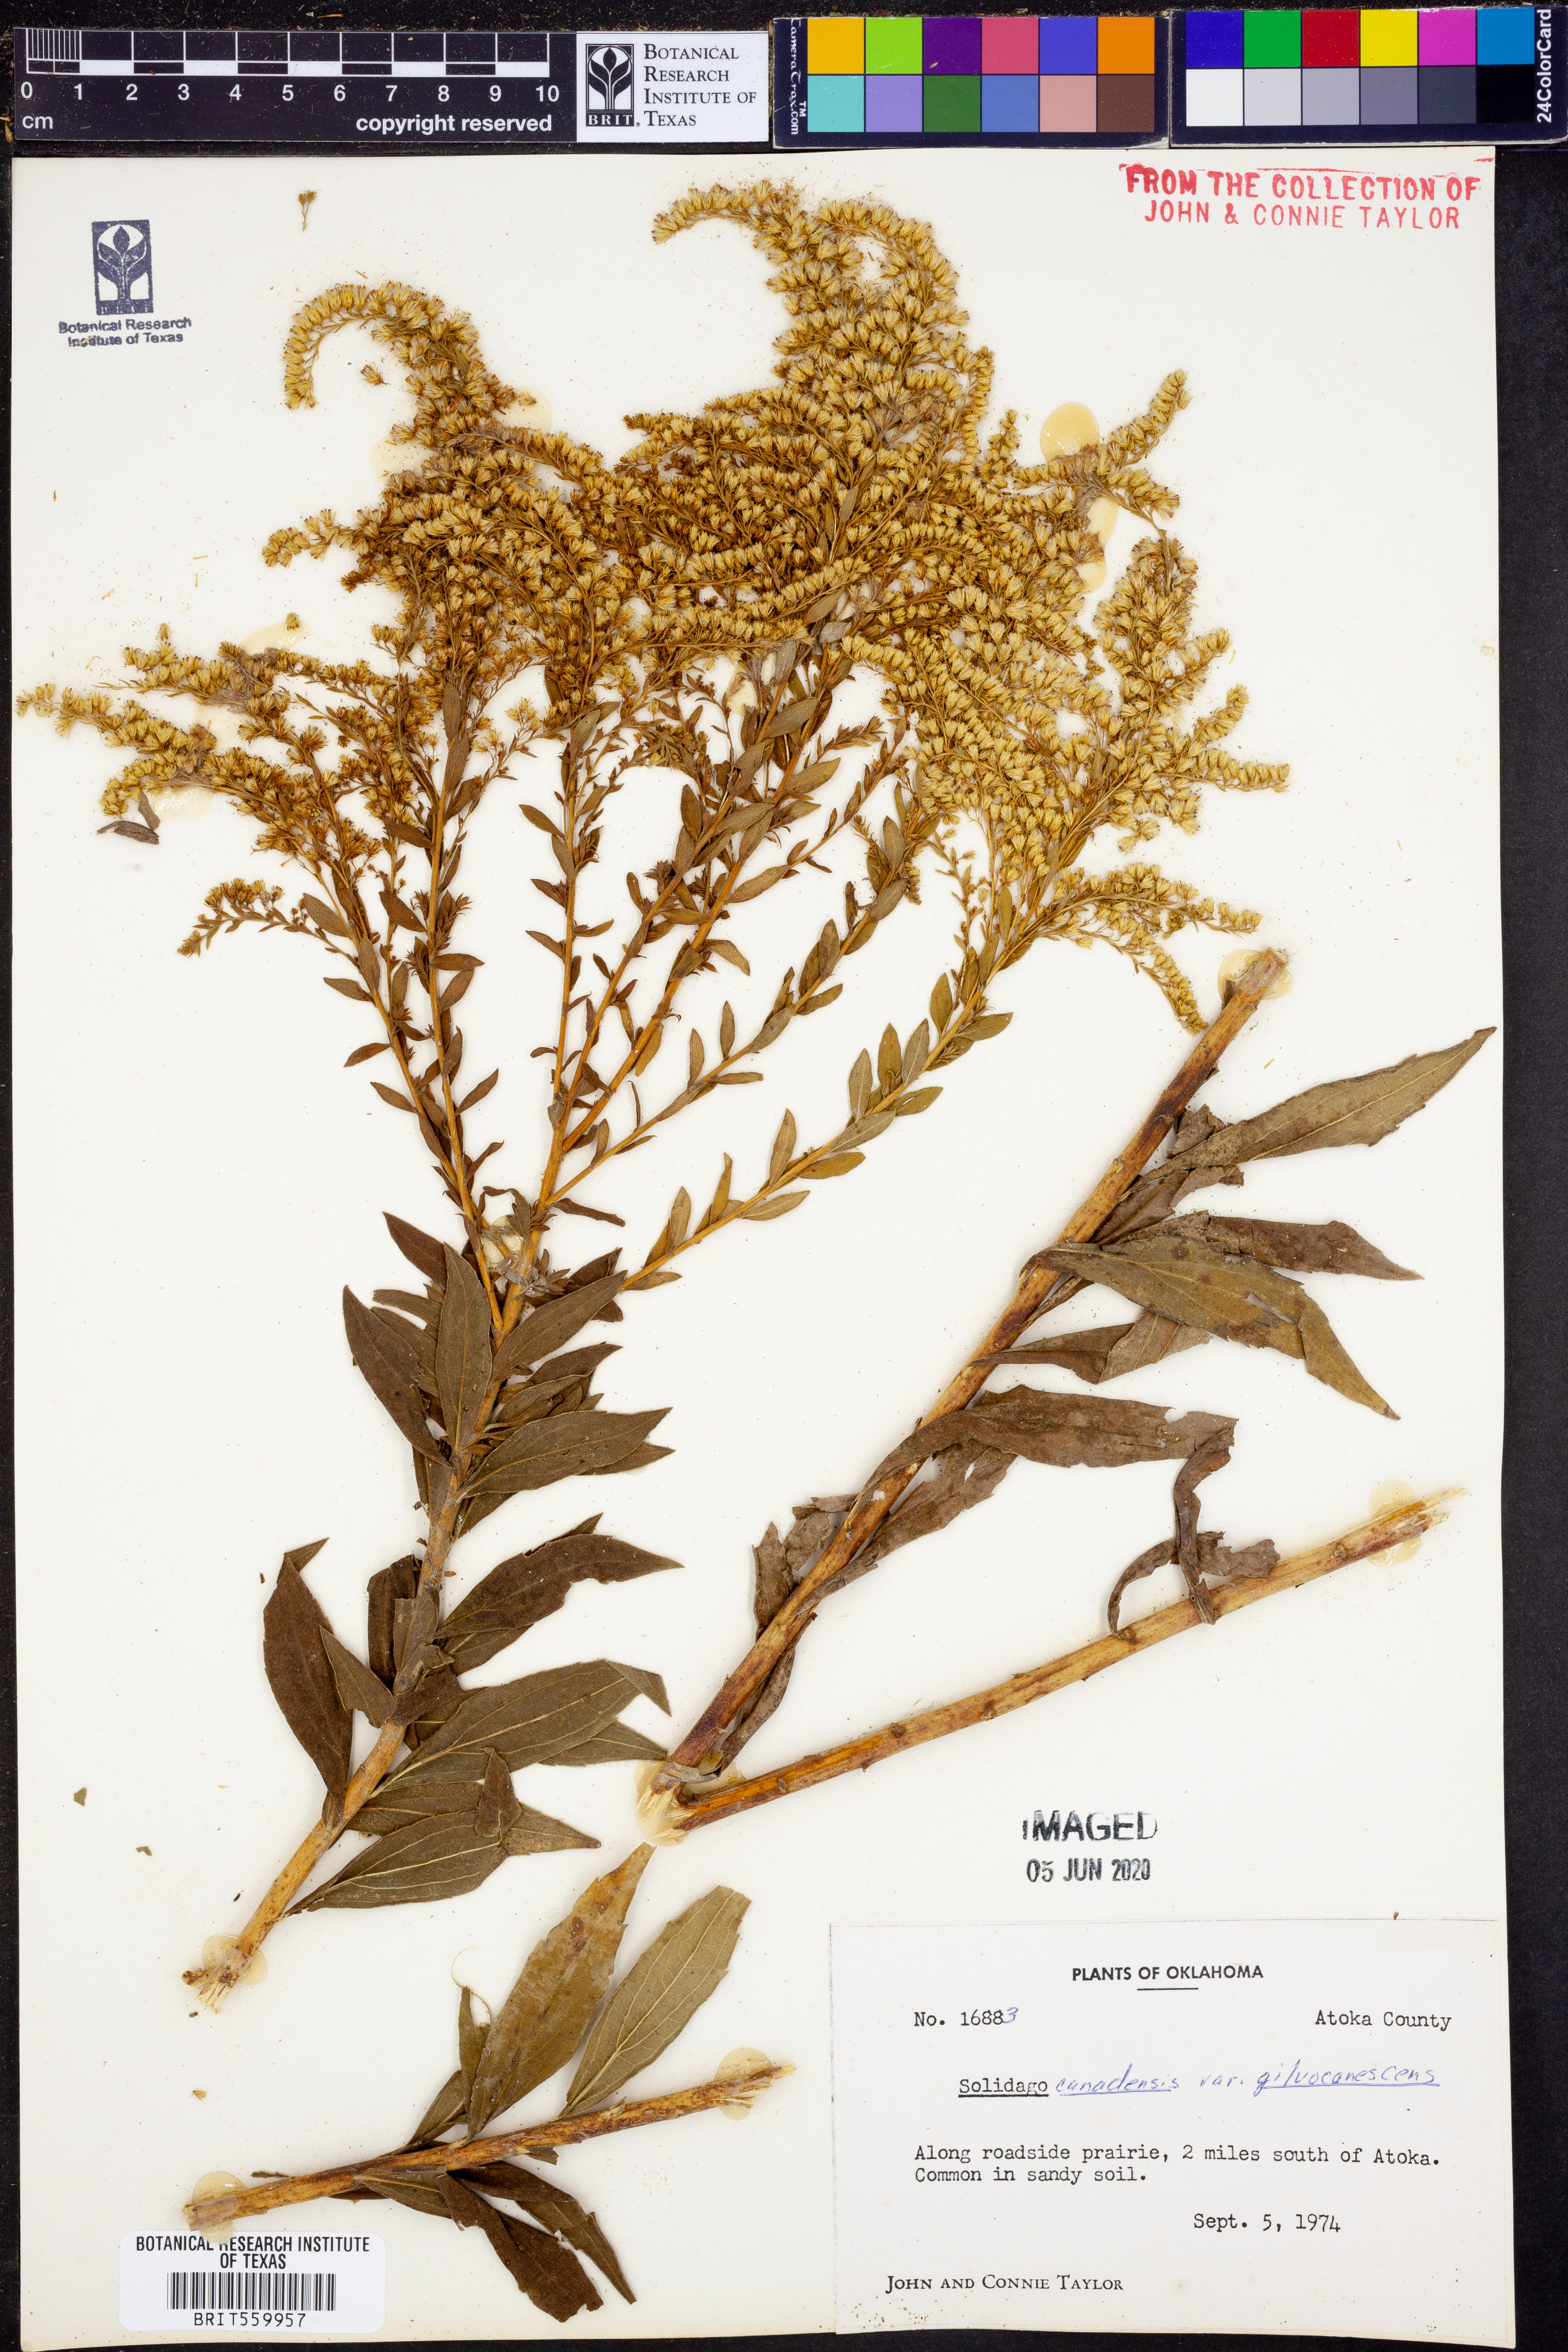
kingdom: Plantae
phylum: Tracheophyta
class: Magnoliopsida
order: Asterales
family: Asteraceae
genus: Solidago
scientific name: Solidago altissima
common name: Late goldenrod
